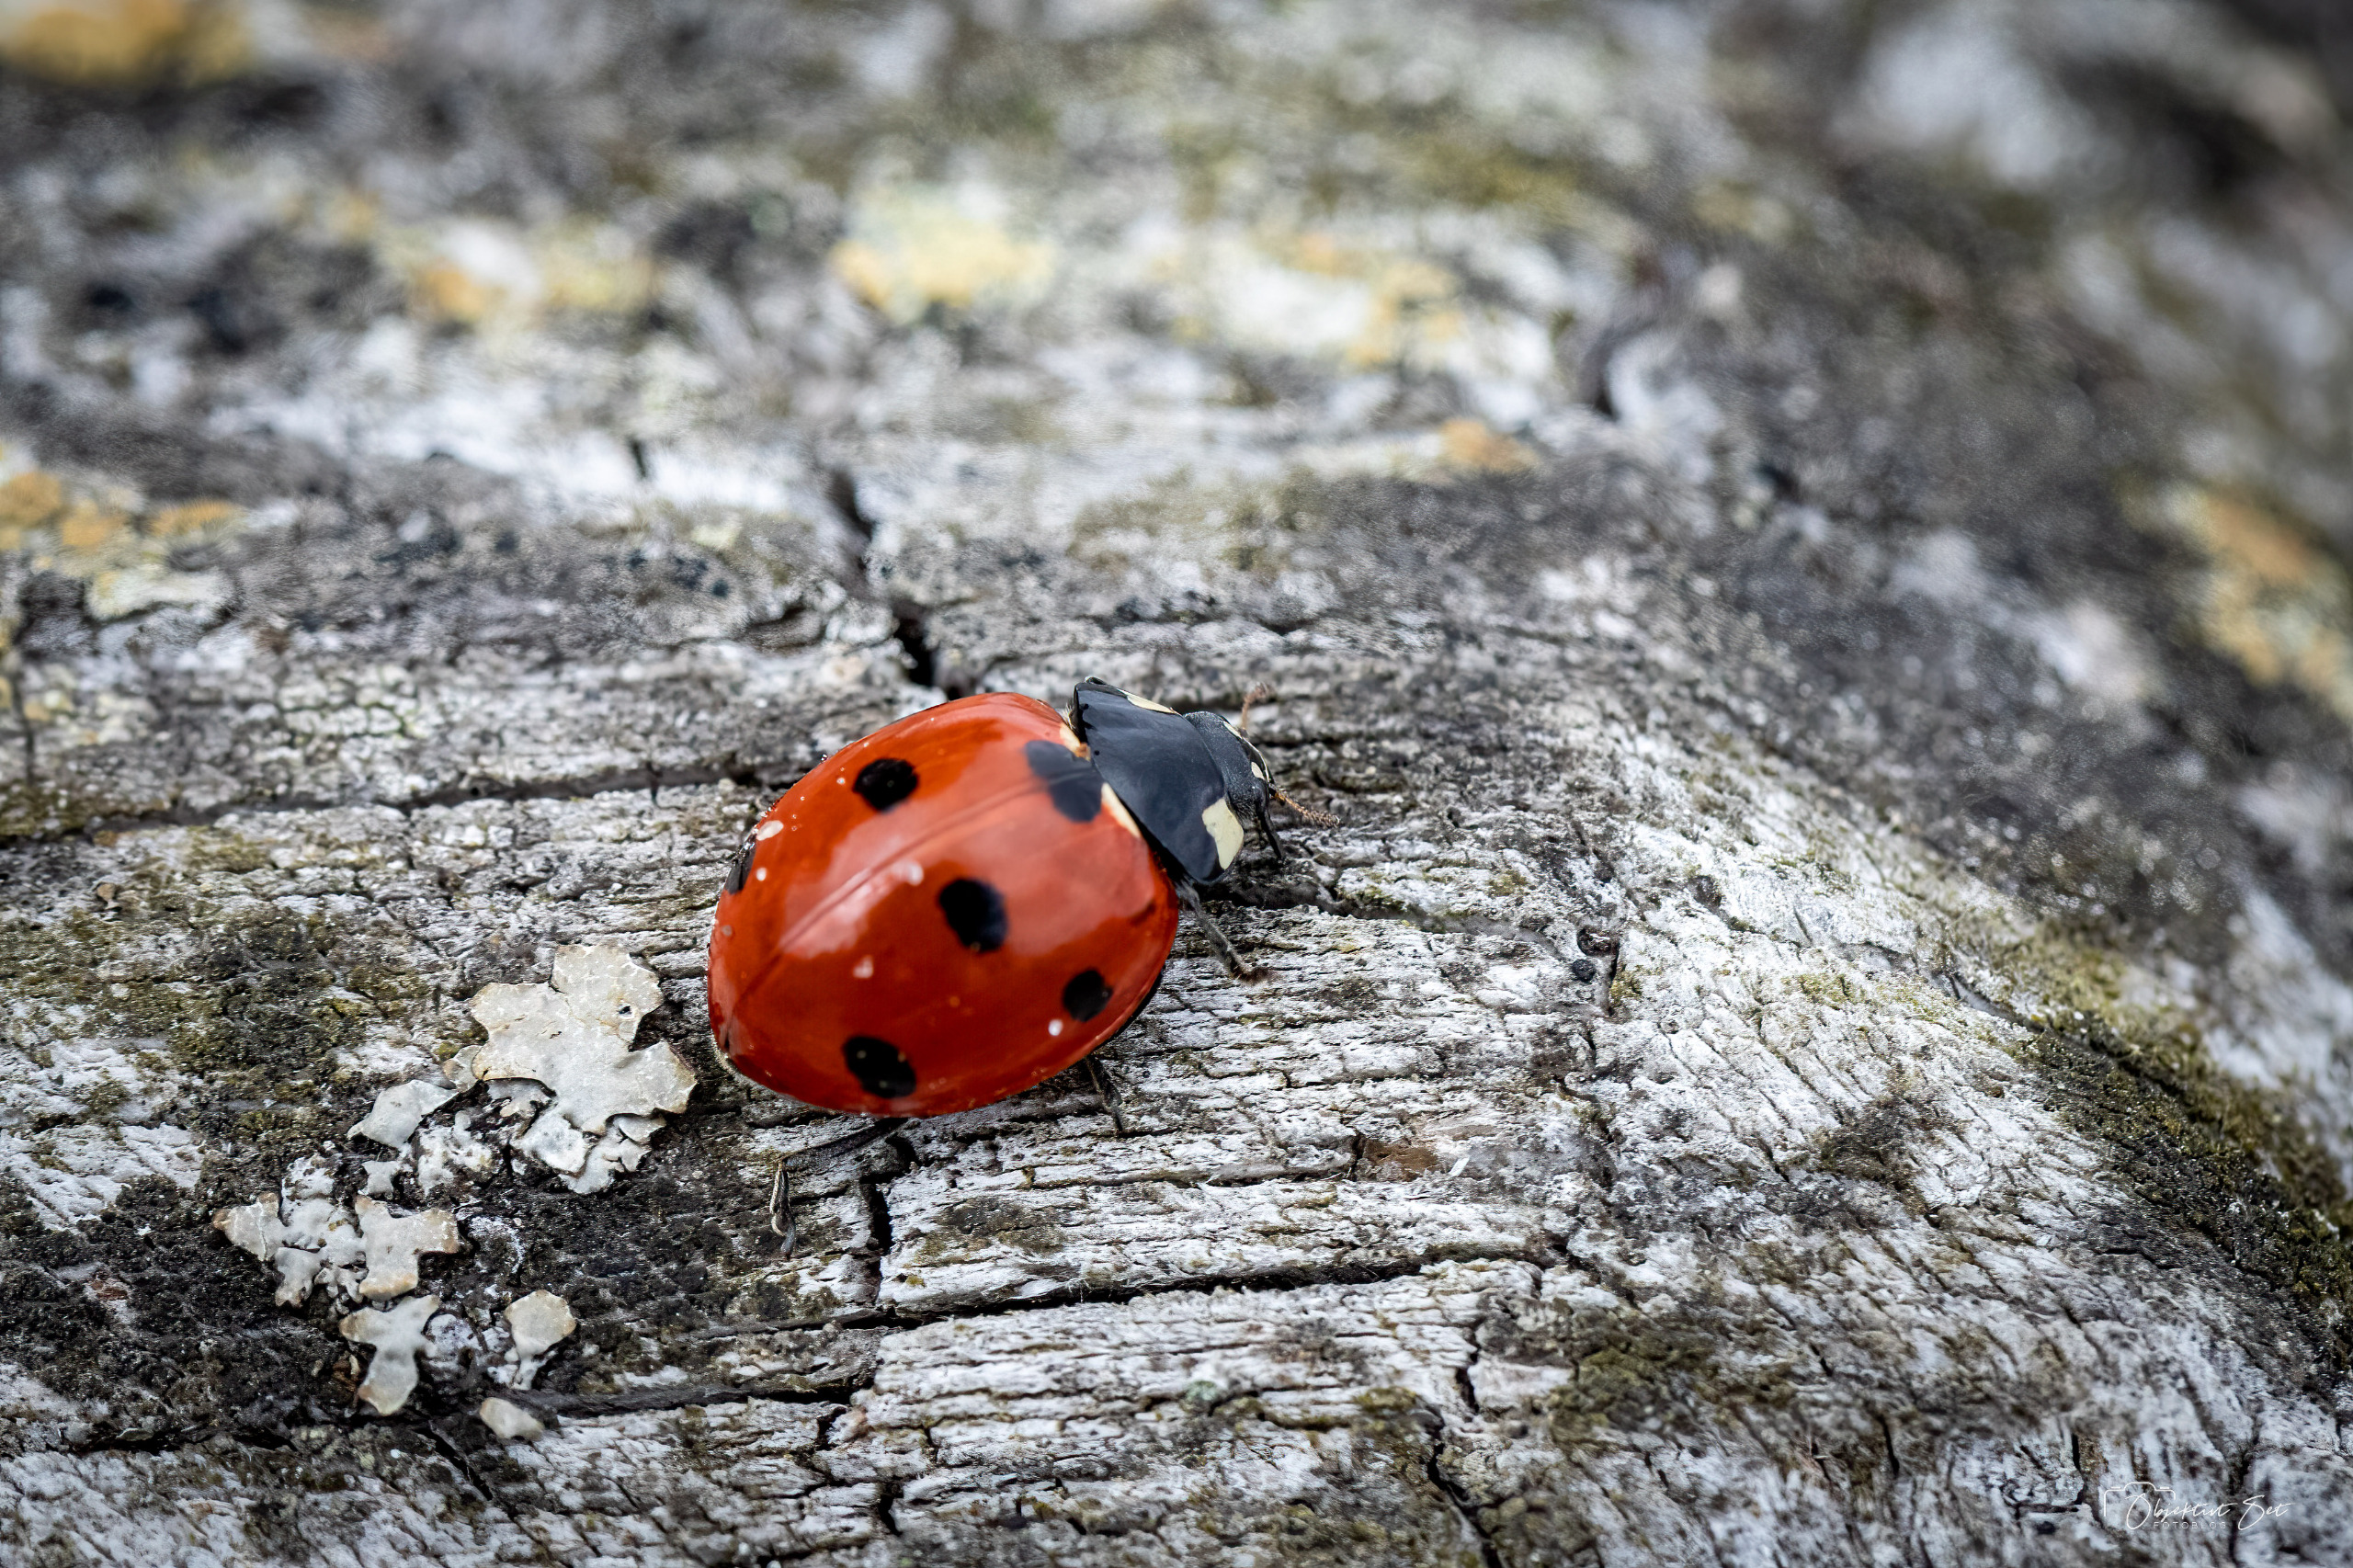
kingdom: Animalia
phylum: Arthropoda
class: Insecta
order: Coleoptera
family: Coccinellidae
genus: Coccinella
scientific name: Coccinella septempunctata
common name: Syvplettet mariehøne
